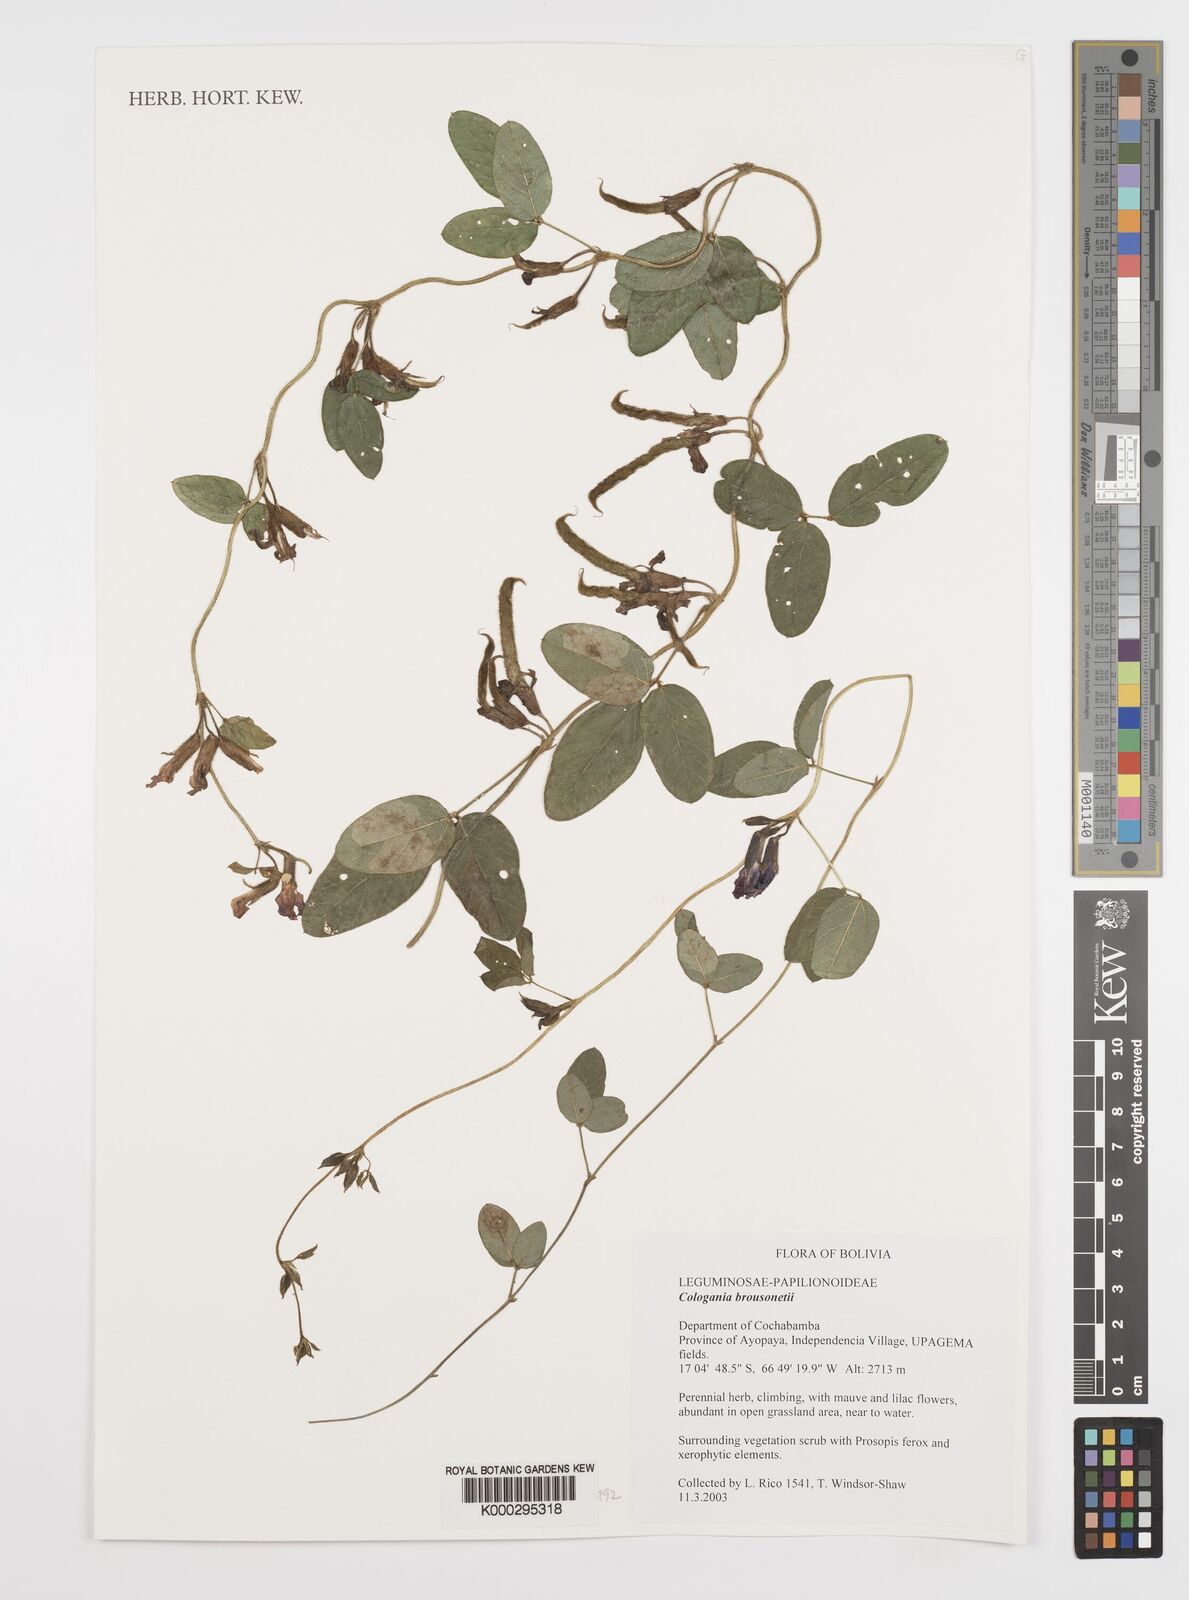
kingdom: Plantae
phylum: Tracheophyta
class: Magnoliopsida
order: Fabales
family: Fabaceae
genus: Cologania
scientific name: Cologania broussonetii
